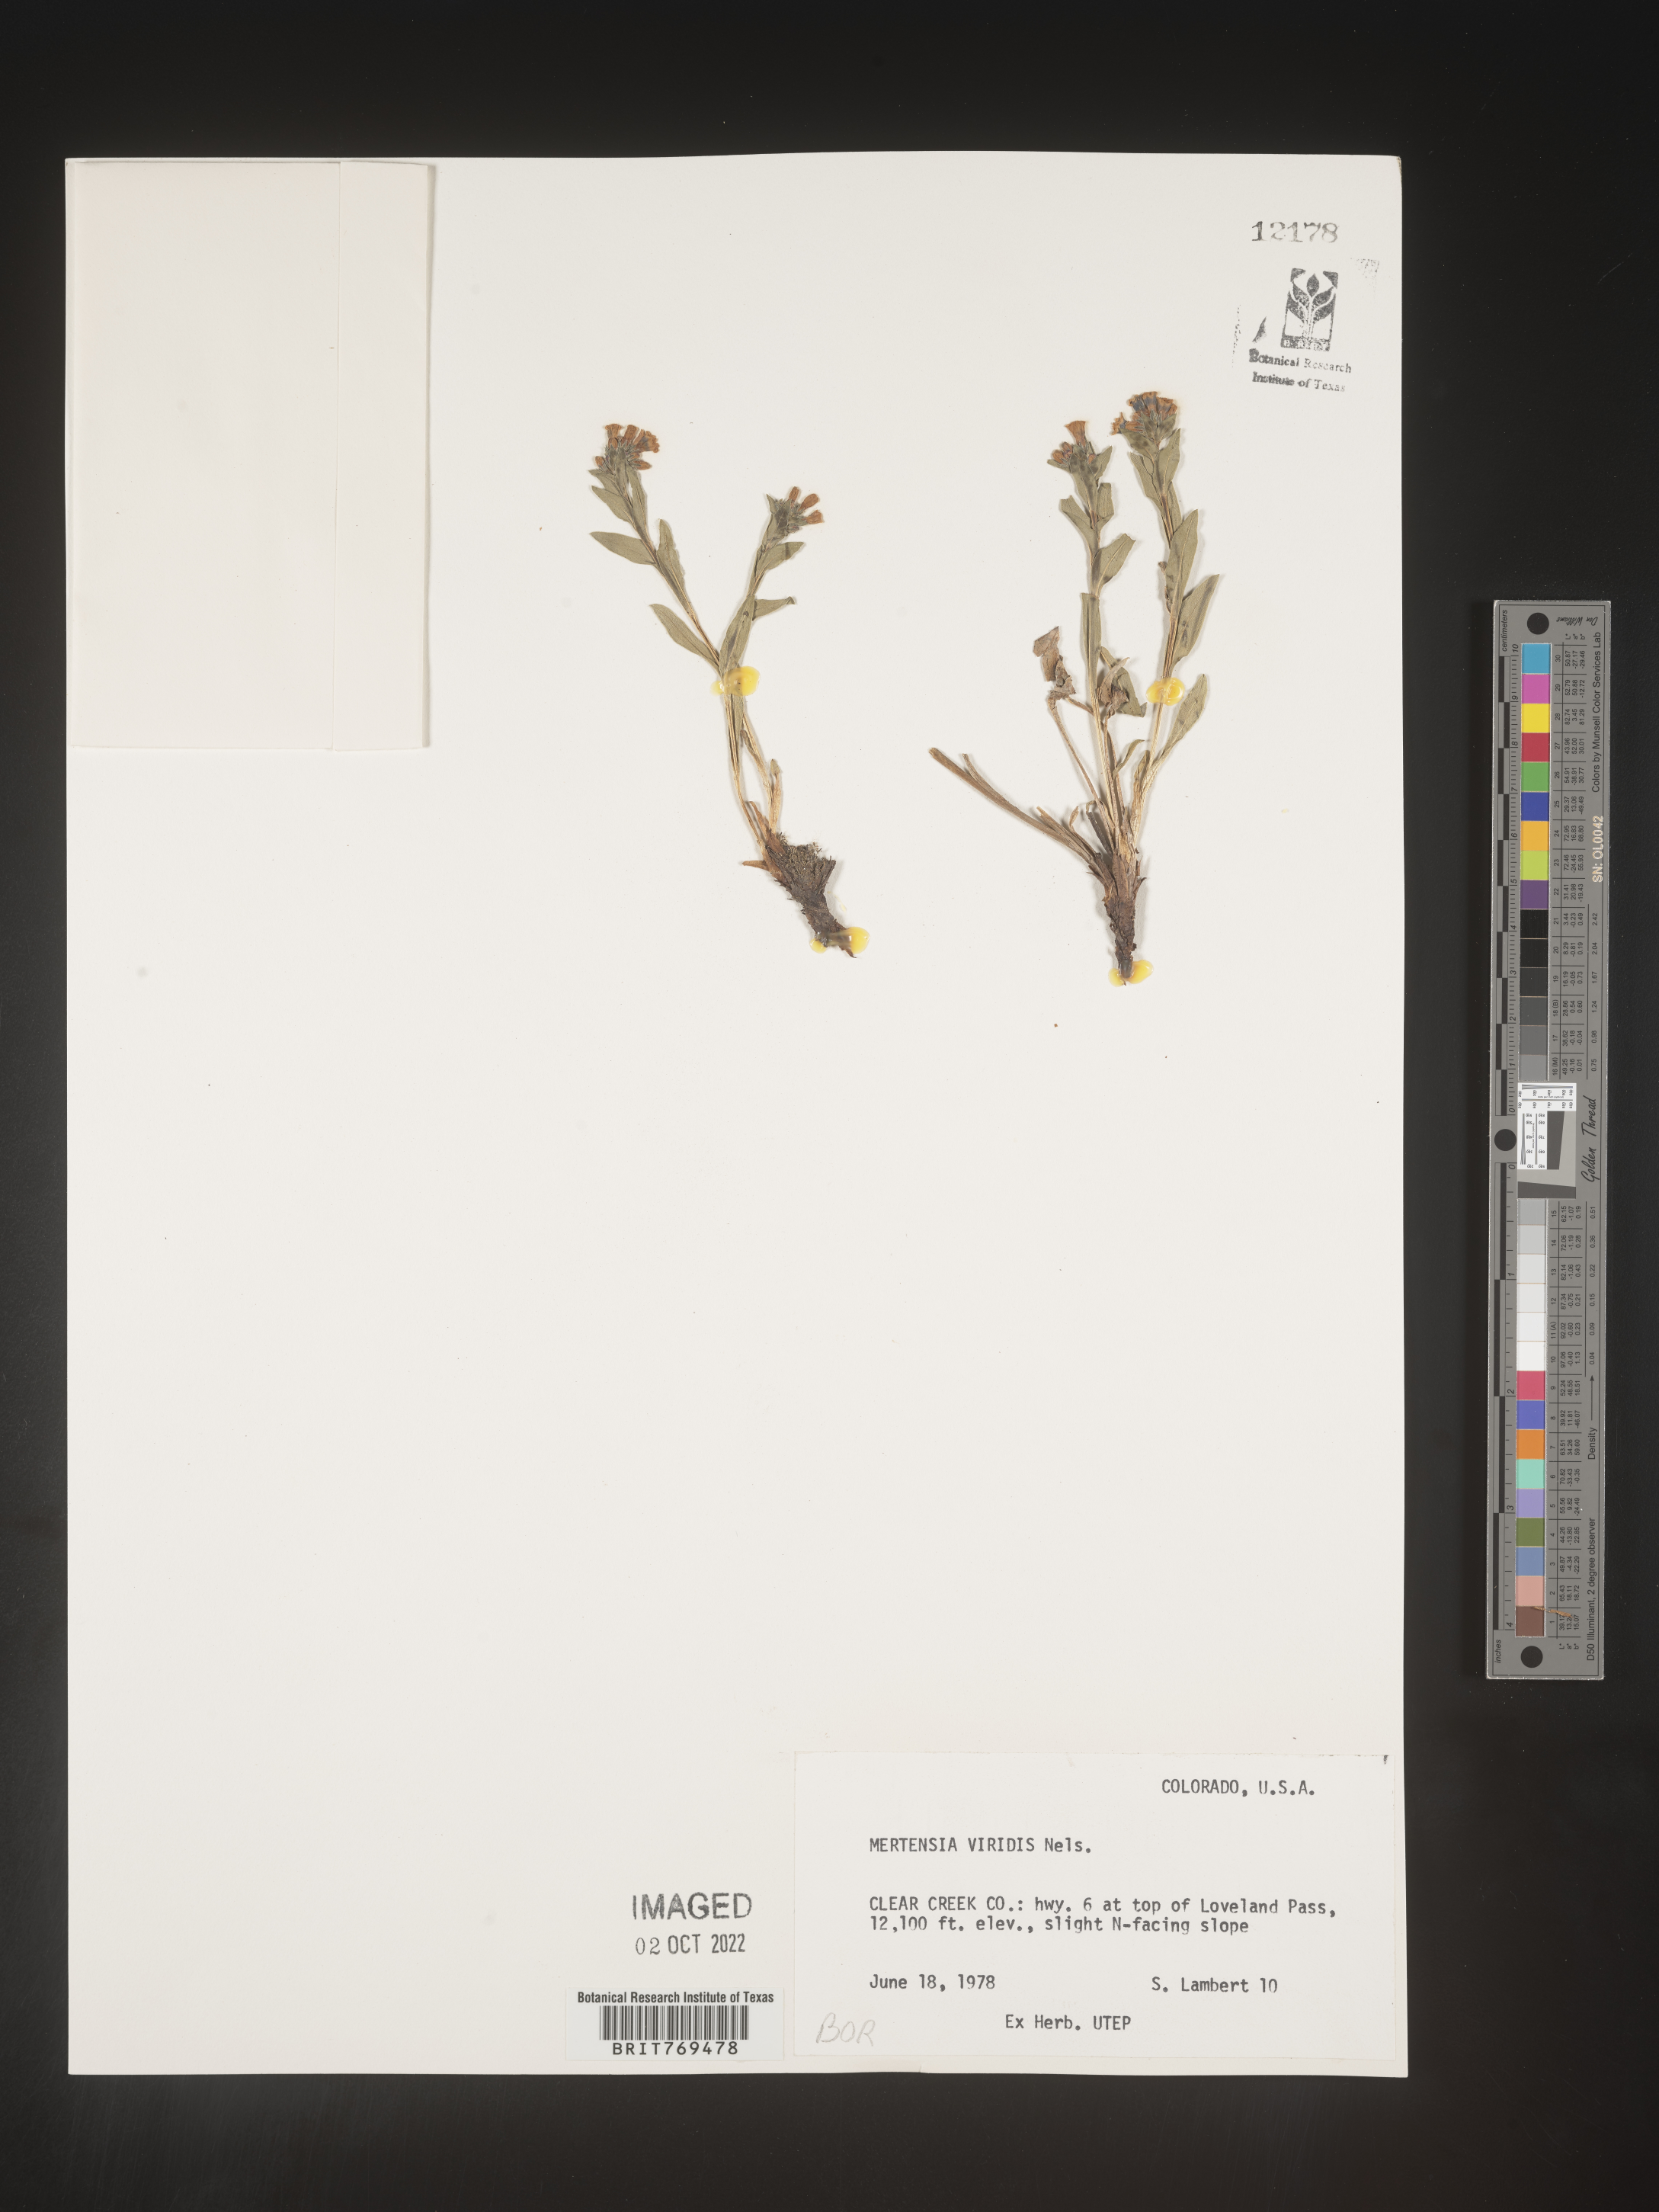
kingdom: Plantae
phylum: Tracheophyta
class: Magnoliopsida
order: Boraginales
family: Boraginaceae
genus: Mertensia
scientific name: Mertensia viridis
